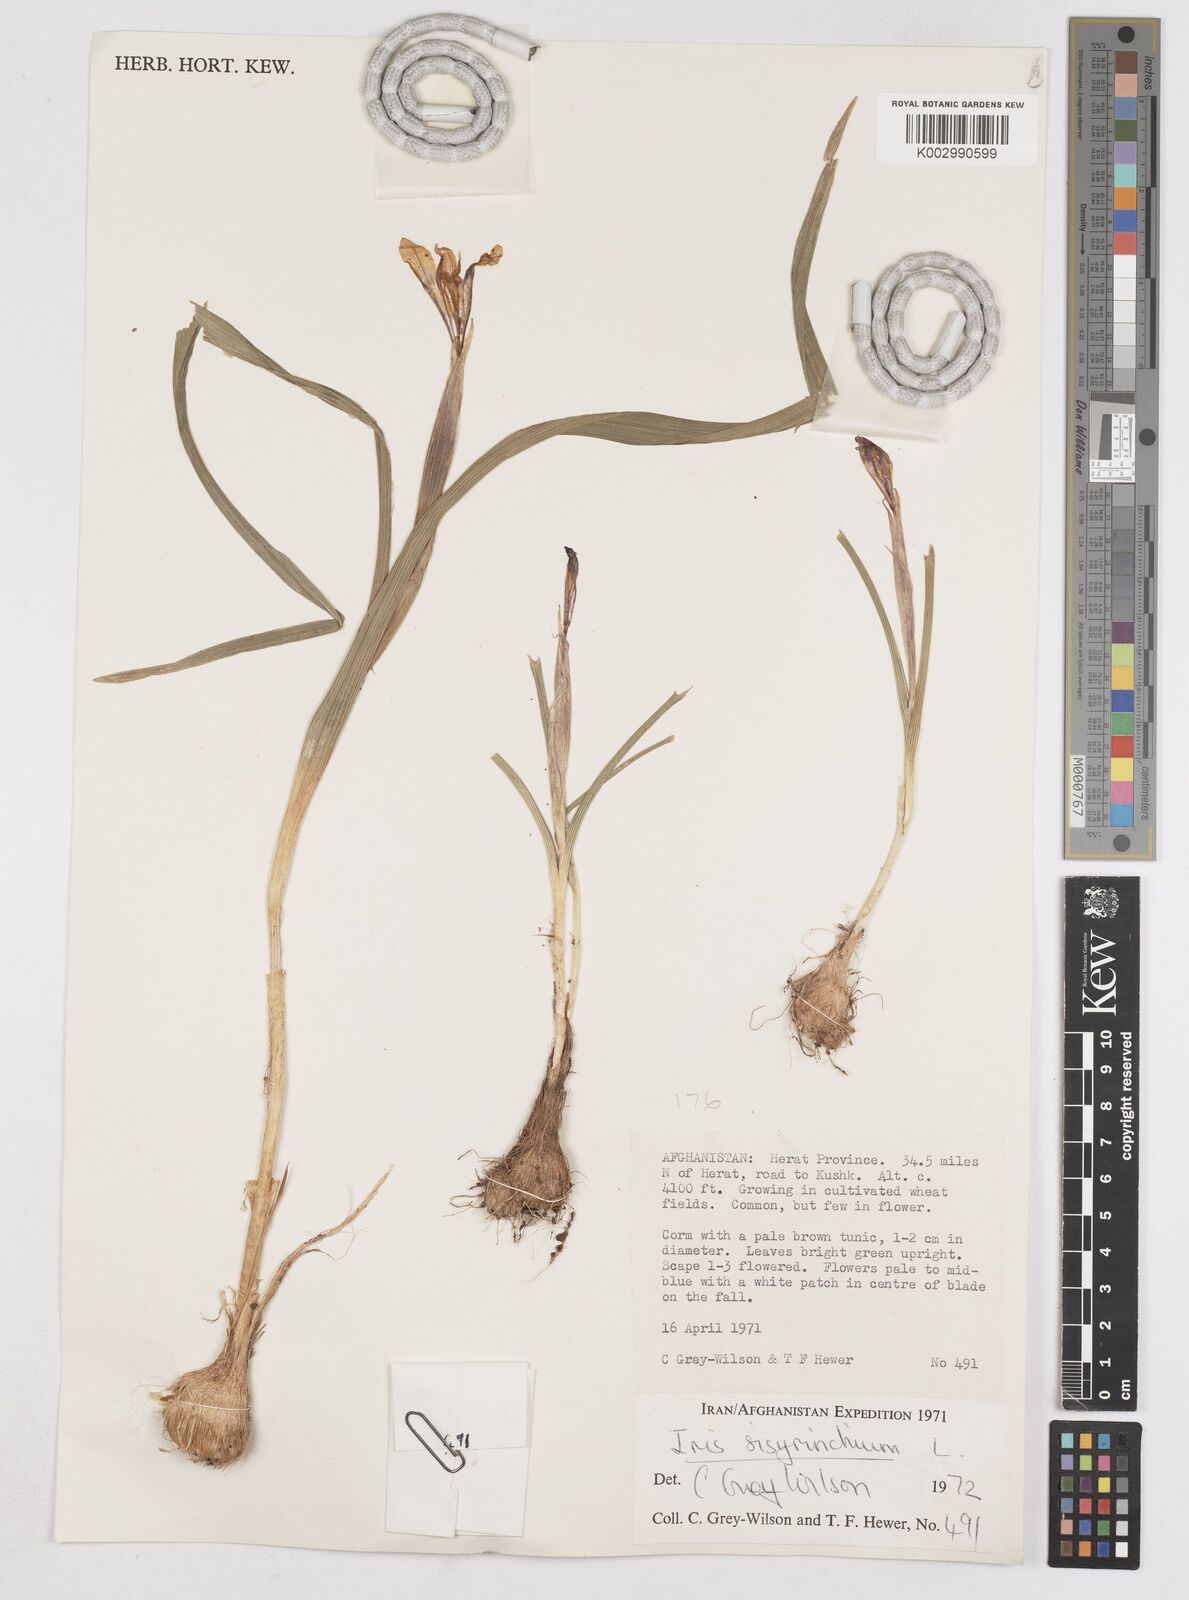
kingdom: Plantae
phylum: Tracheophyta
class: Liliopsida
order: Asparagales
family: Iridaceae
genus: Moraea
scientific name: Moraea sisyrinchium
